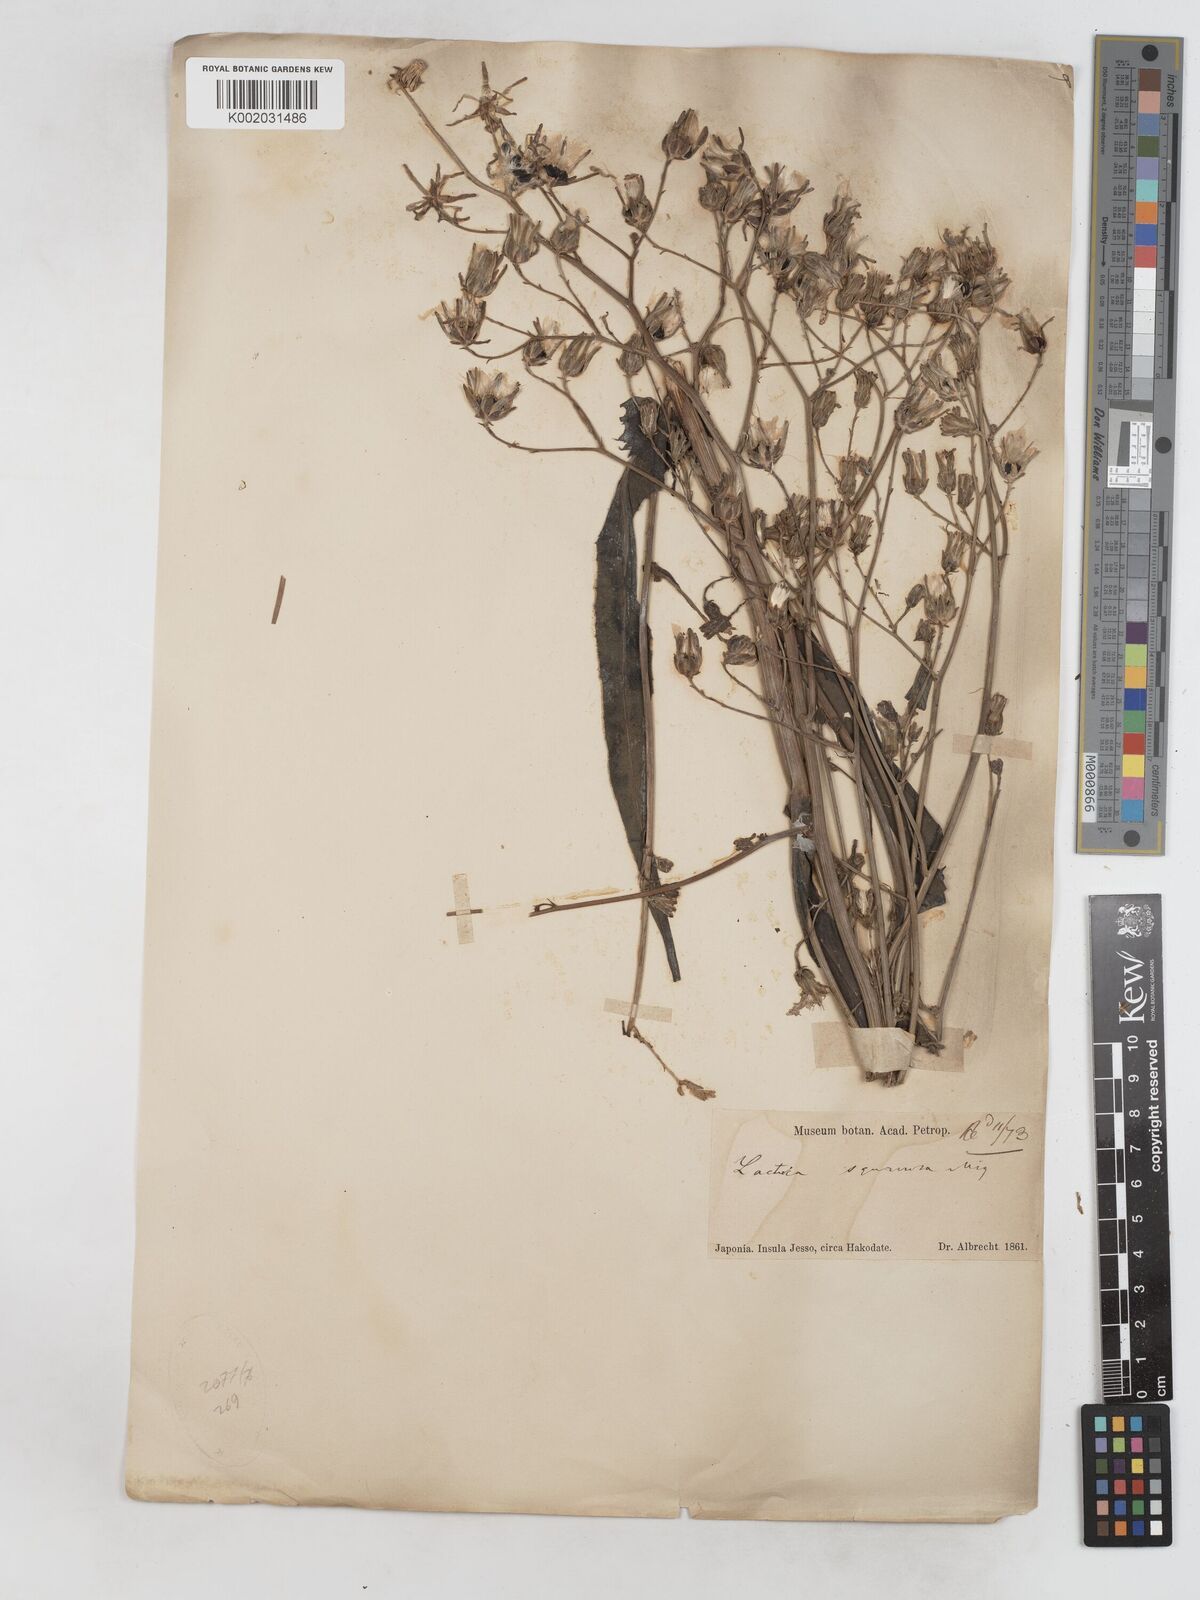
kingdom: Plantae
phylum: Tracheophyta
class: Magnoliopsida
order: Asterales
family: Asteraceae
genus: Lactuca
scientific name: Lactuca indica
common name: Wild lettuce
